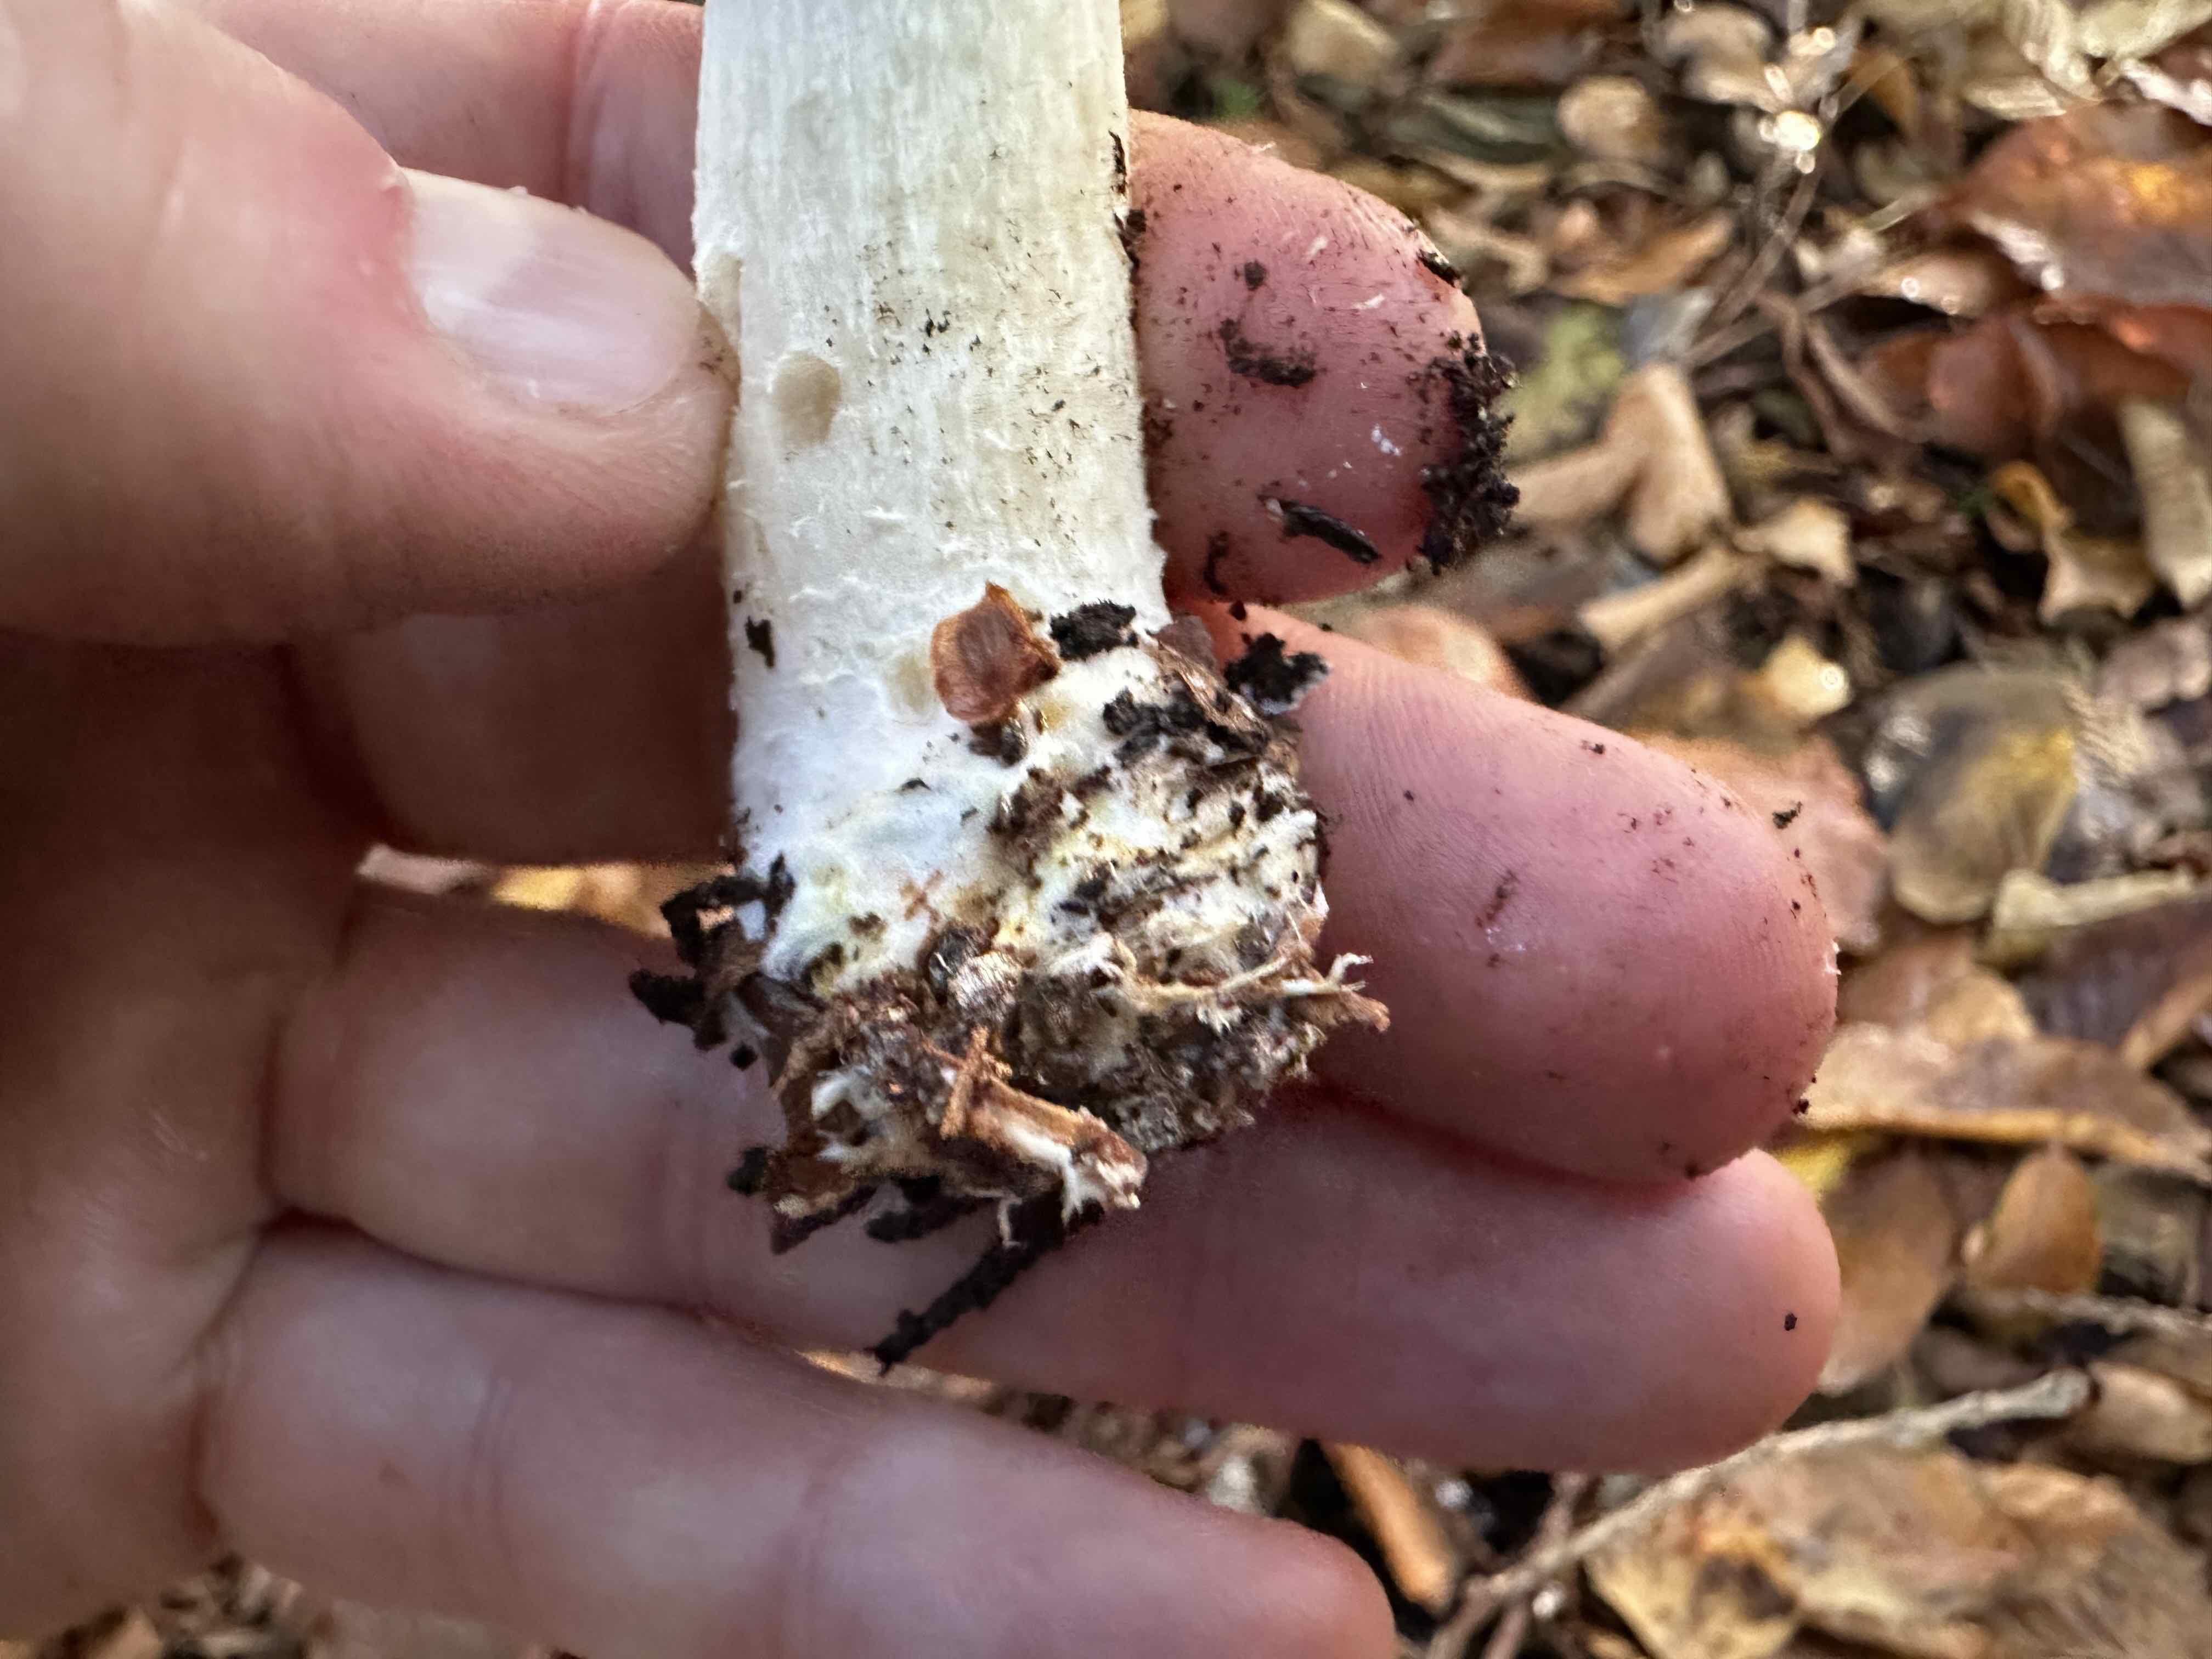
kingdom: Fungi
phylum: Basidiomycota
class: Agaricomycetes
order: Agaricales
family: Agaricaceae
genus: Agaricus
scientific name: Agaricus sylvicola
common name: gulhvid champignon
